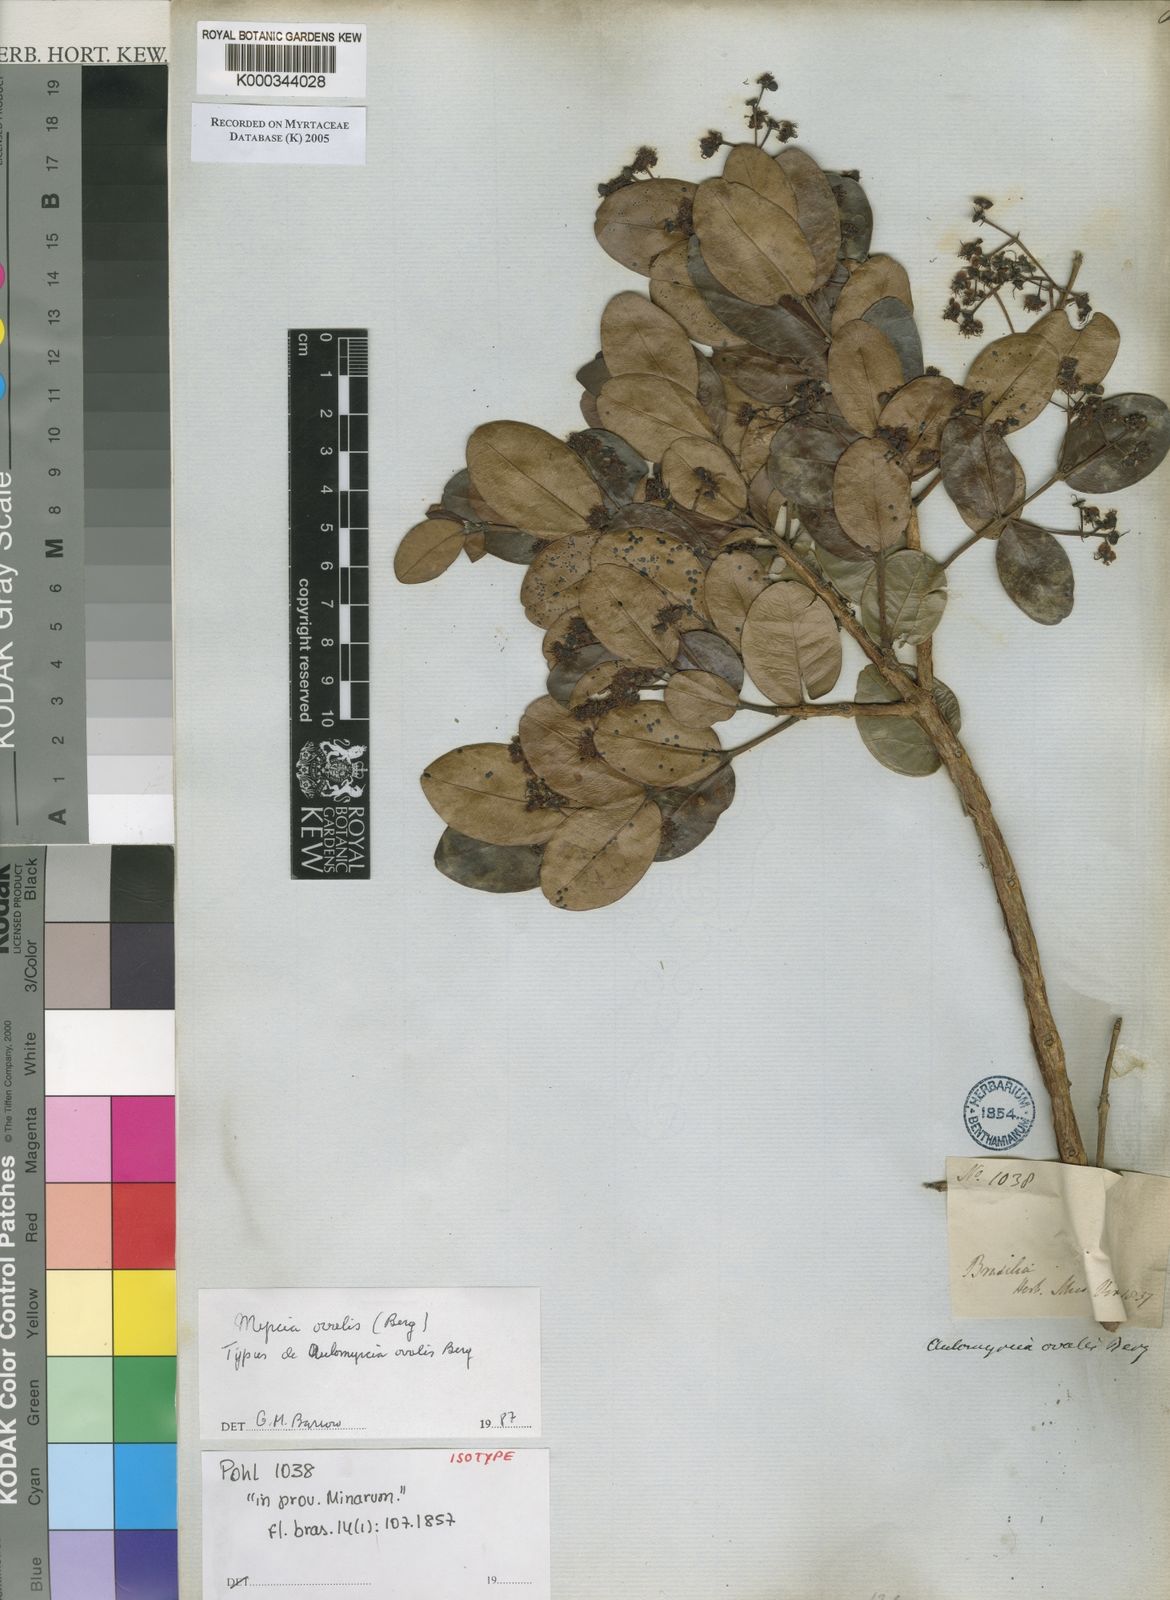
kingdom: Plantae
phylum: Tracheophyta
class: Magnoliopsida
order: Myrtales
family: Myrtaceae
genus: Myrcia
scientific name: Myrcia ovalis
